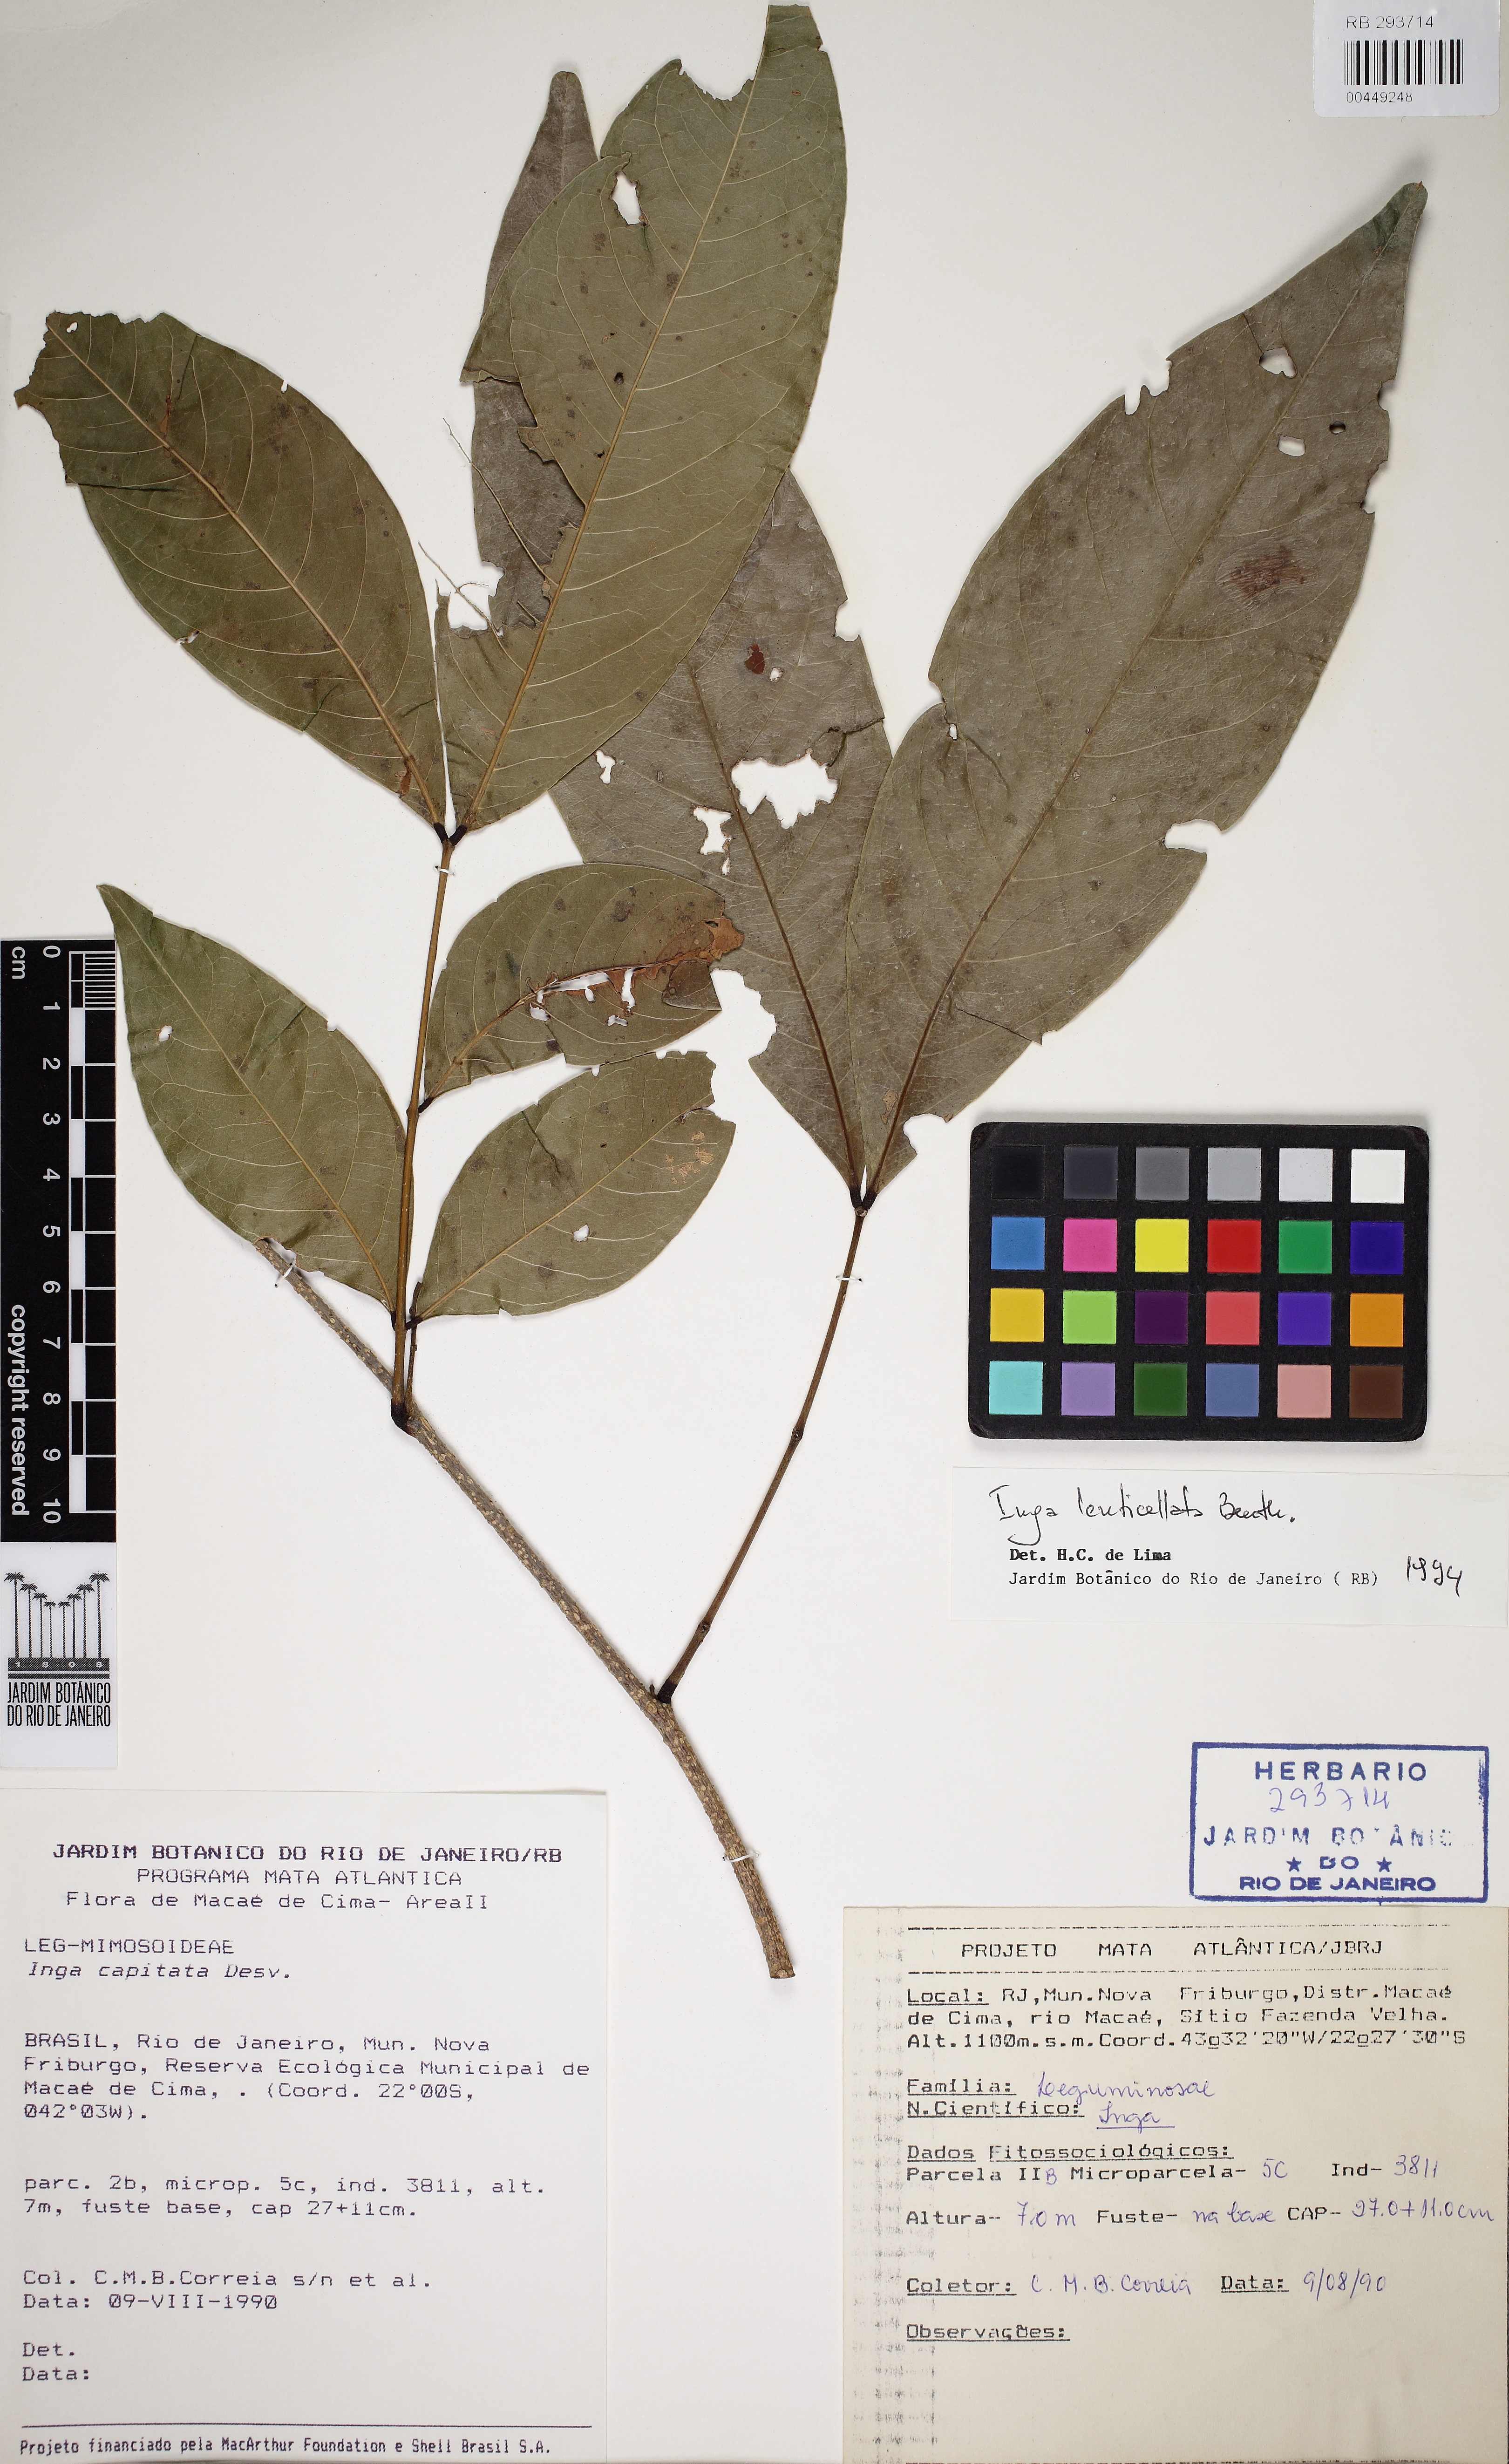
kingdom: Plantae
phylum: Tracheophyta
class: Magnoliopsida
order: Fabales
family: Fabaceae
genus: Inga
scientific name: Inga lenticellata
